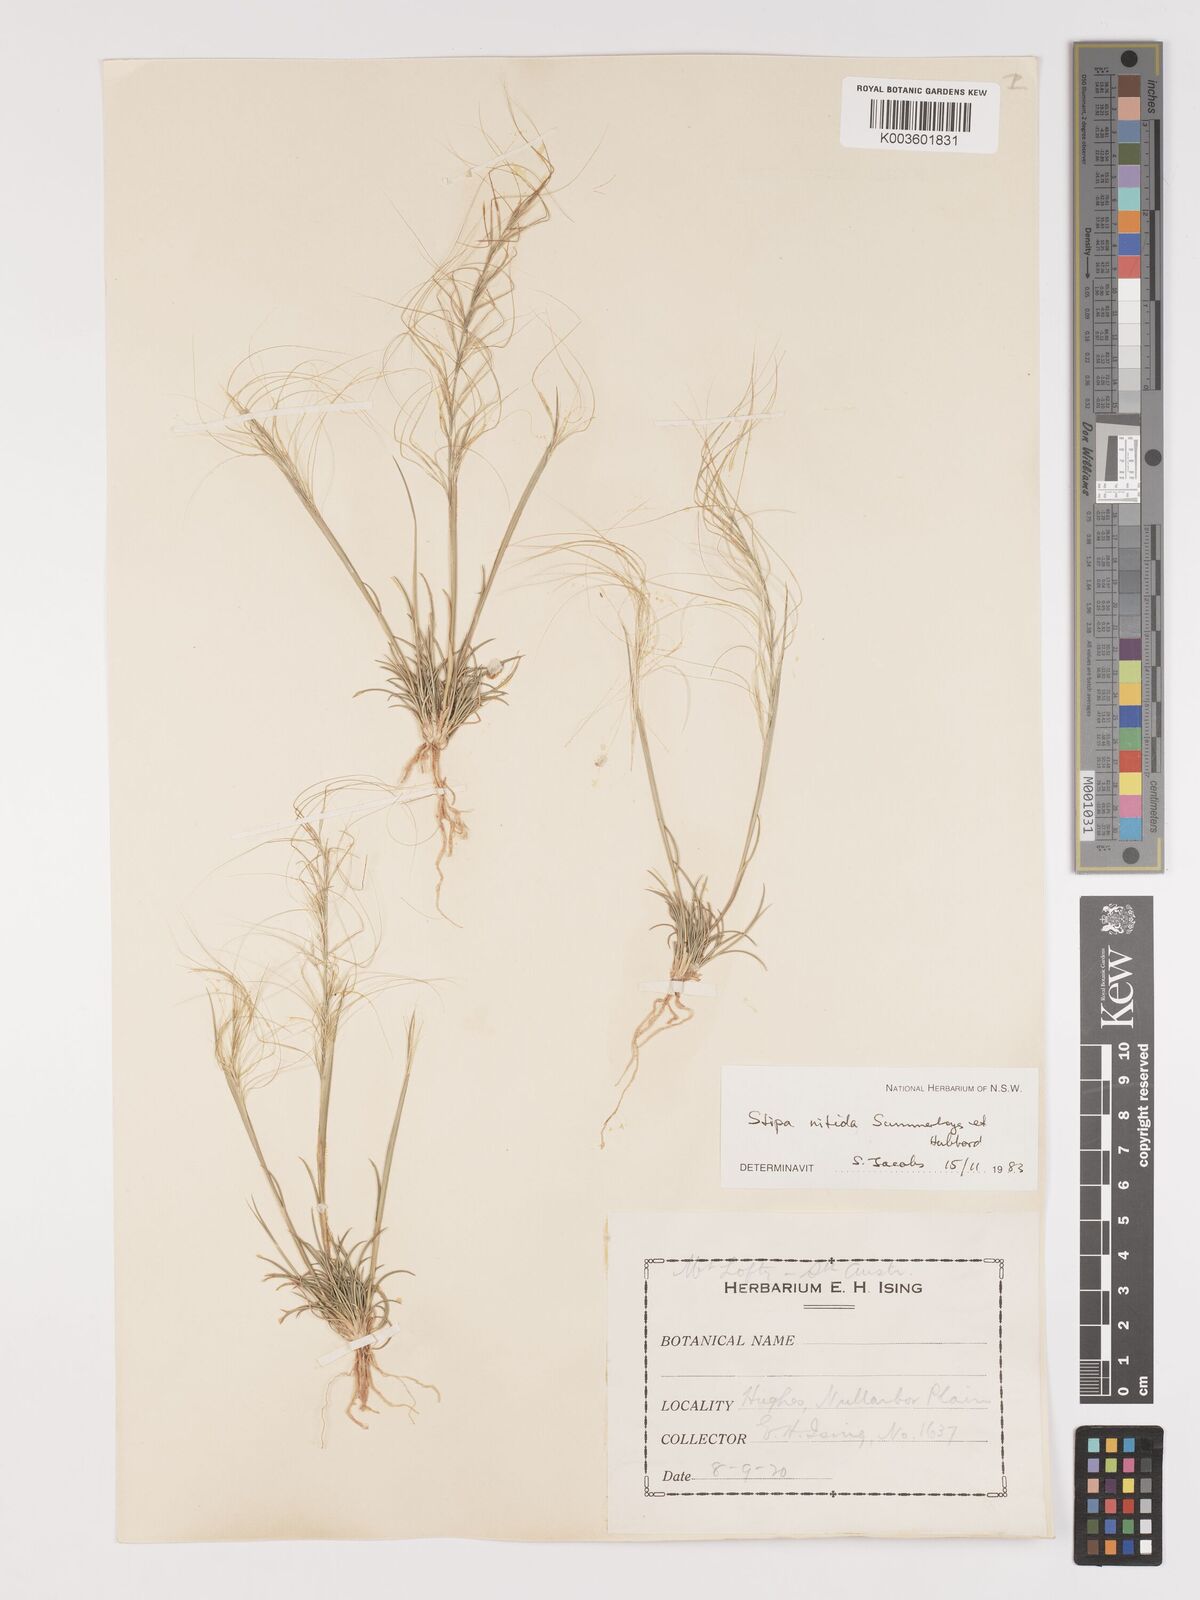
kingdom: Plantae
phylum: Tracheophyta
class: Liliopsida
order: Poales
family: Poaceae
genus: Austrostipa
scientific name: Austrostipa nitida
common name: Balcarra grass
